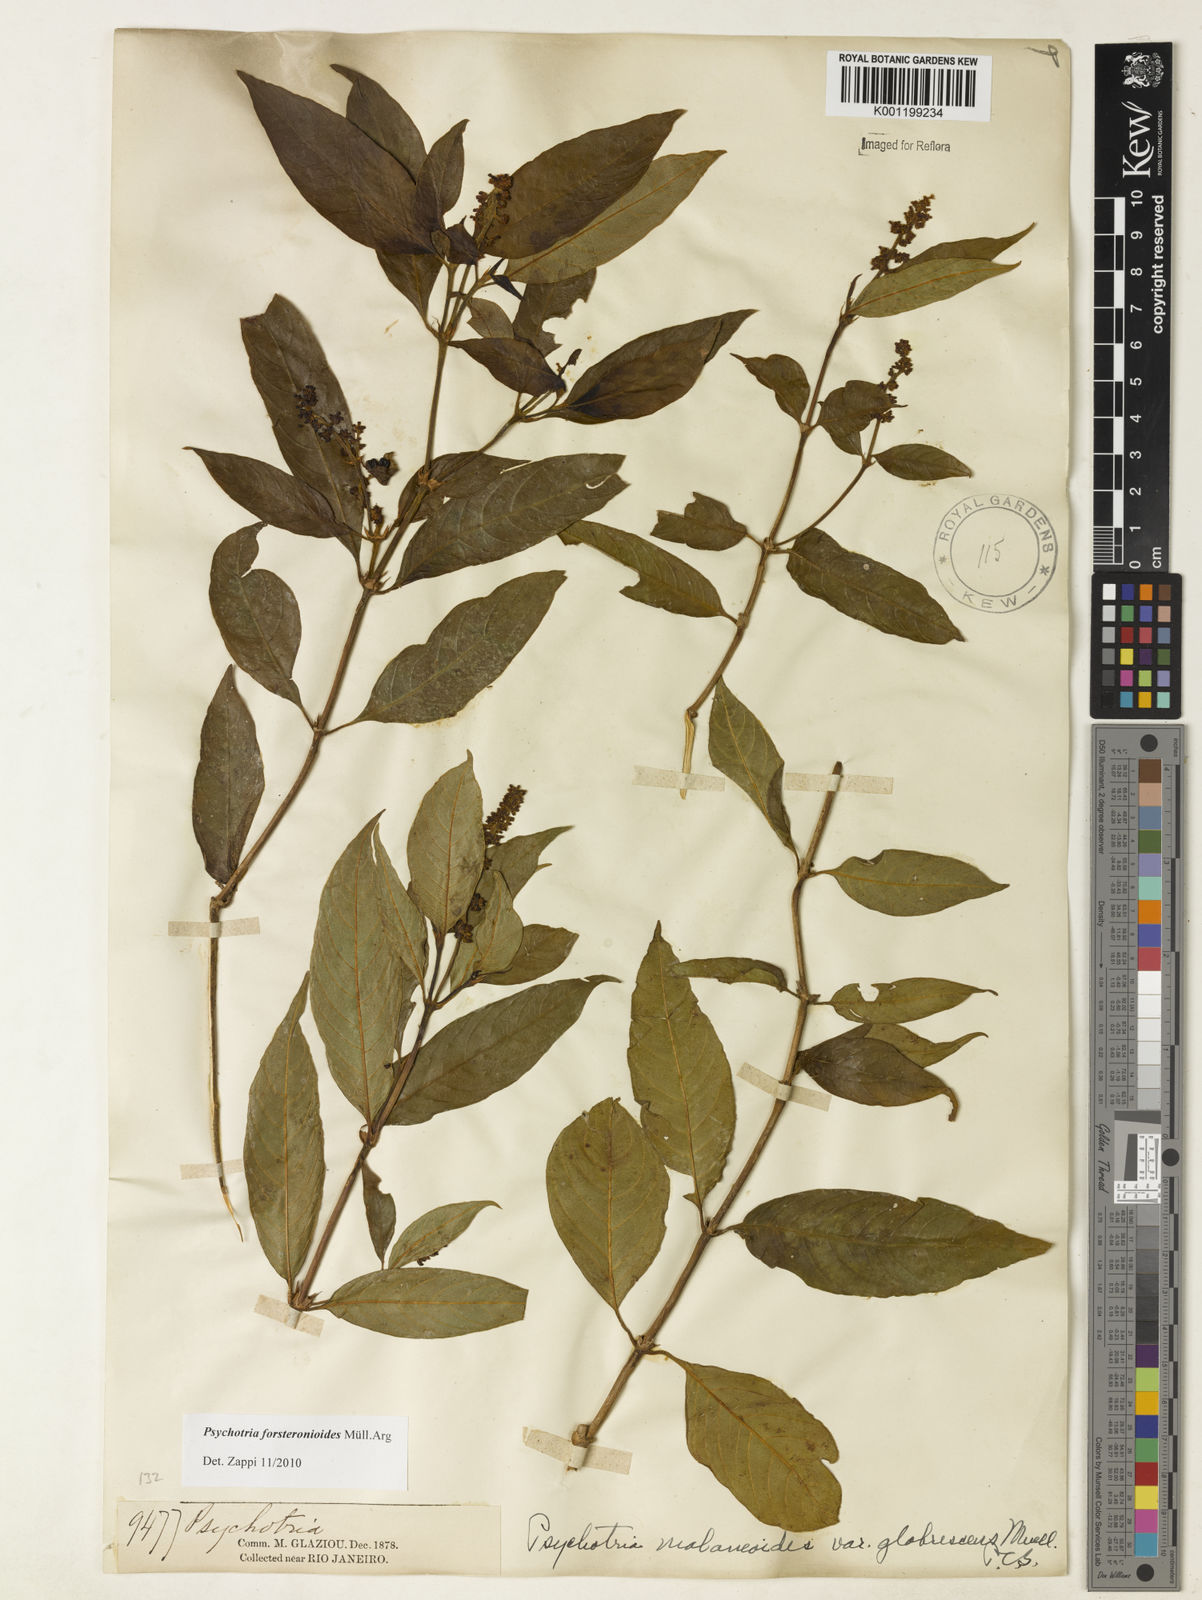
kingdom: Plantae
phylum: Tracheophyta
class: Magnoliopsida
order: Gentianales
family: Rubiaceae
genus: Psychotria
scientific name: Psychotria
